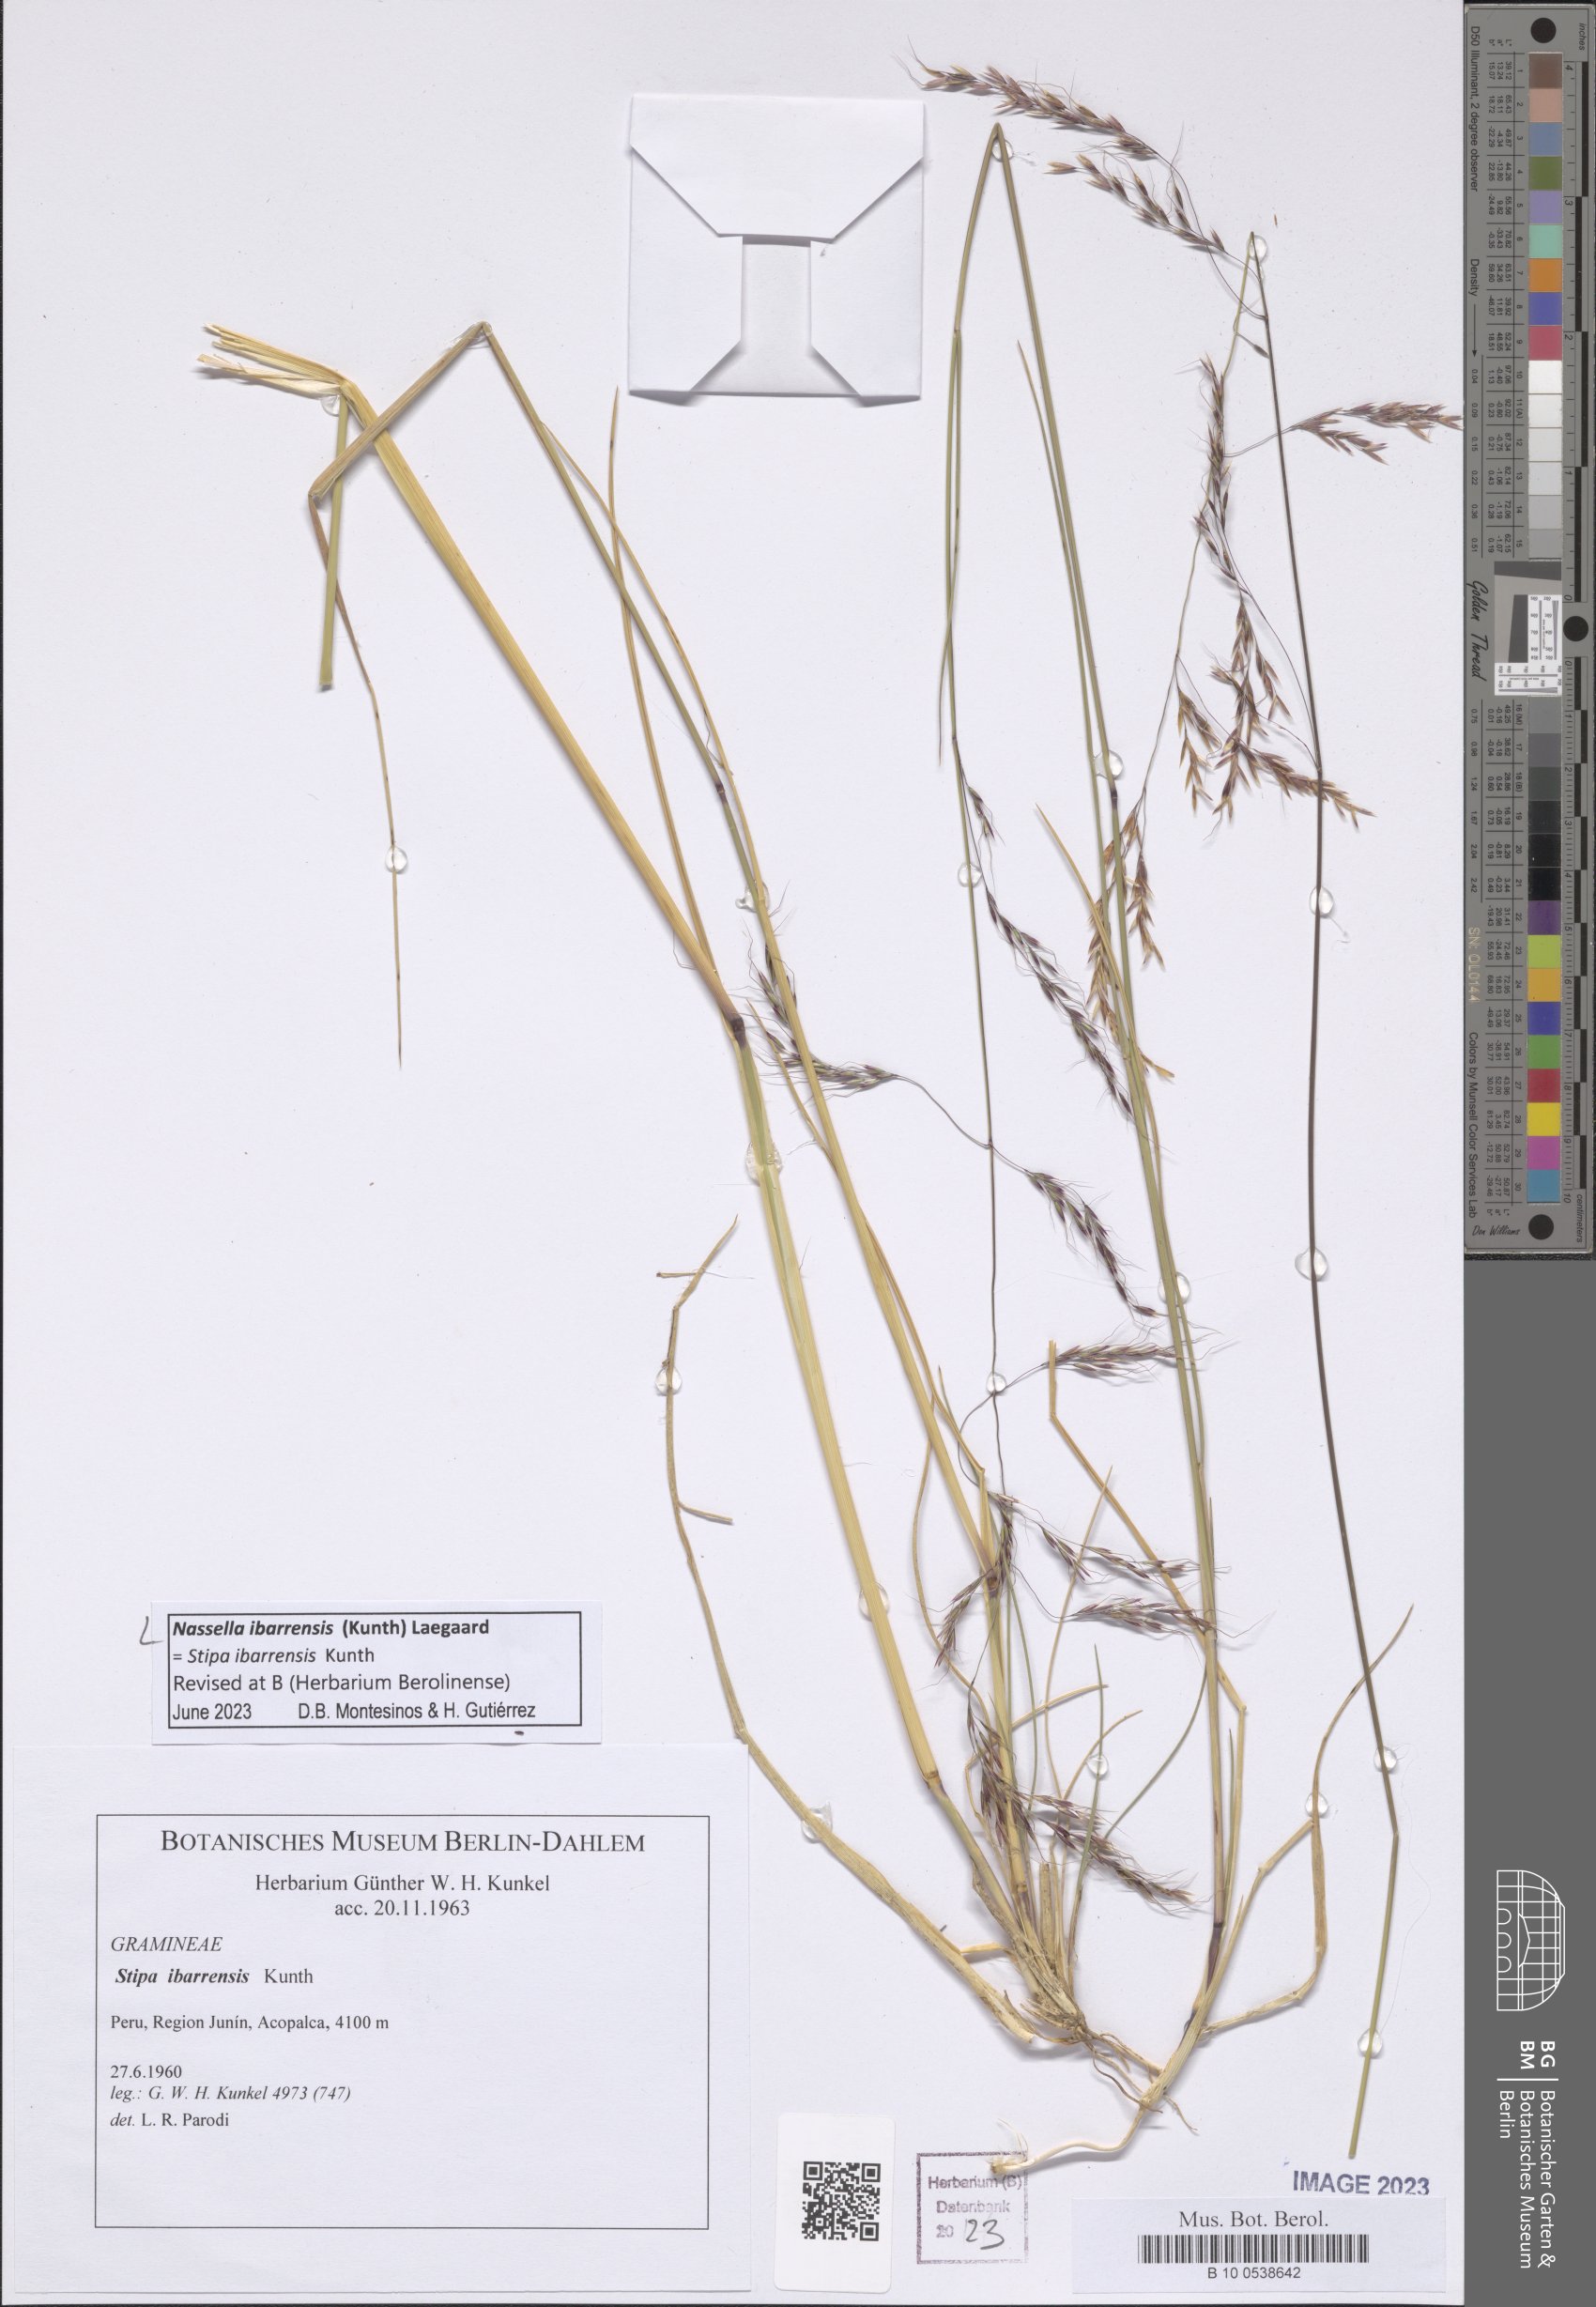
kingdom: Plantae
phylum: Tracheophyta
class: Liliopsida
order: Poales
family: Poaceae
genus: Nassella
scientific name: Nassella ibarrensis
